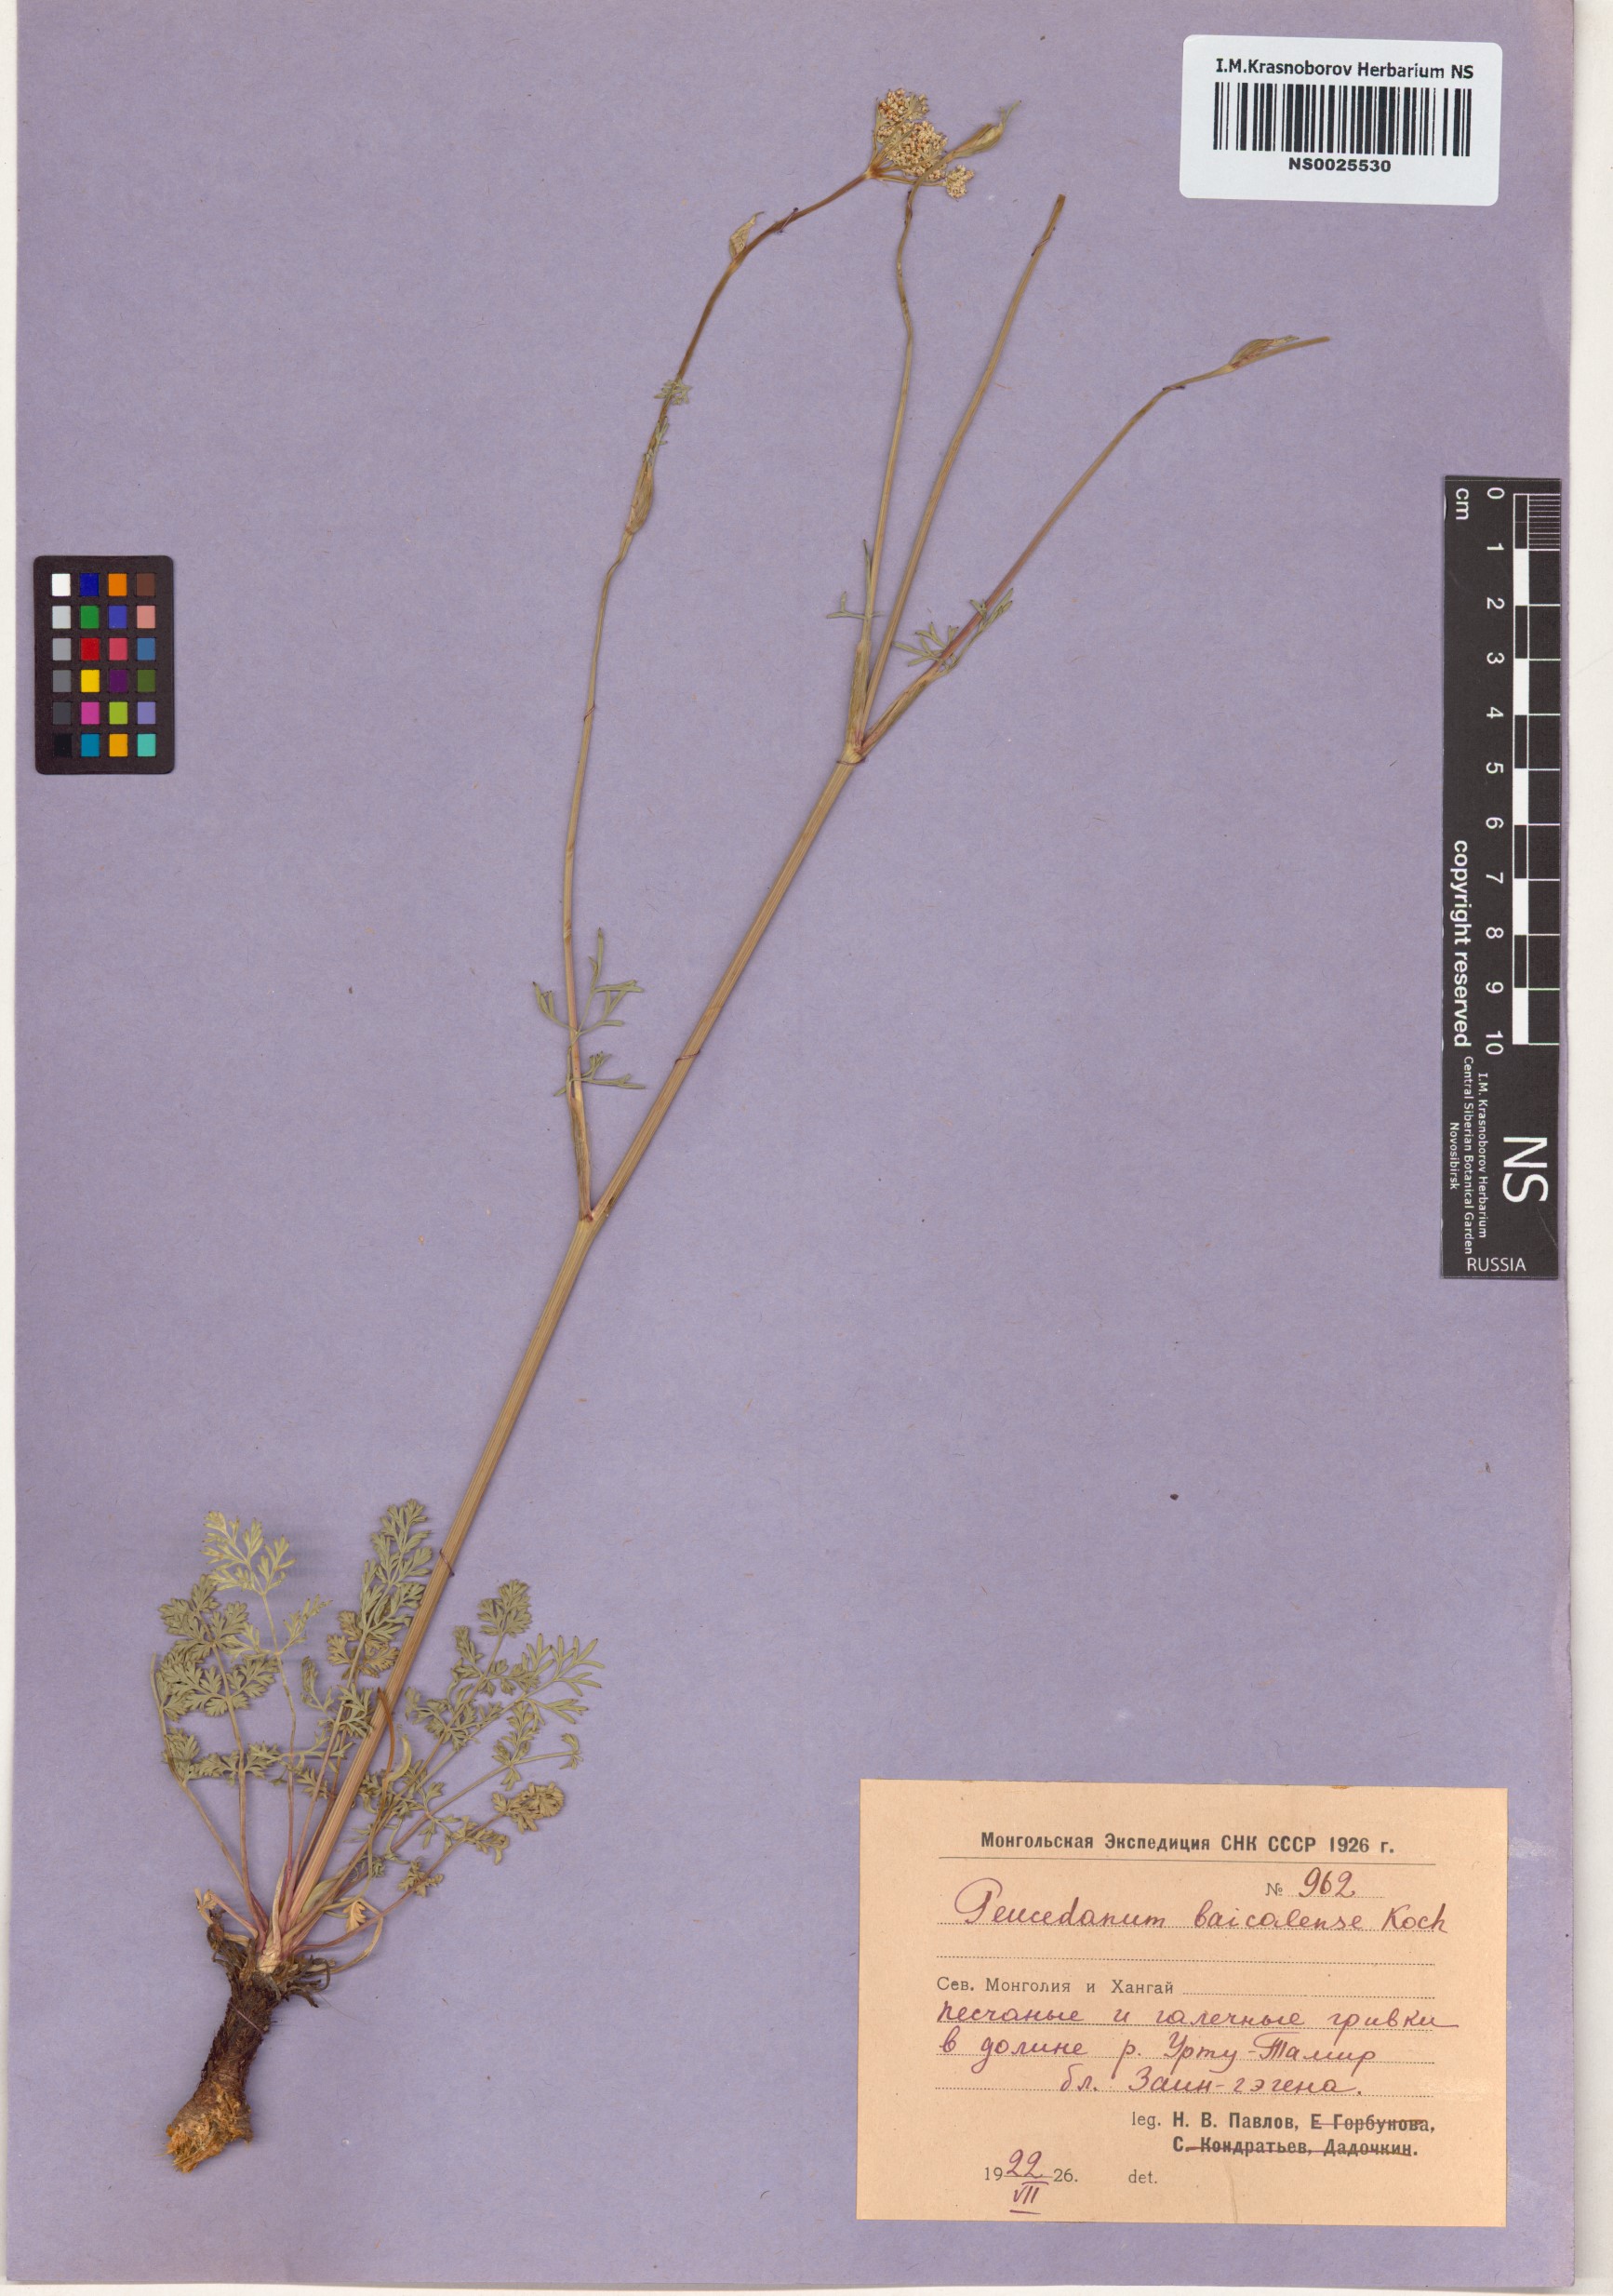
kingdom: Plantae
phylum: Tracheophyta
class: Magnoliopsida
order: Apiales
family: Apiaceae
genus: Kitagawia
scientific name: Kitagawia baicalensis
